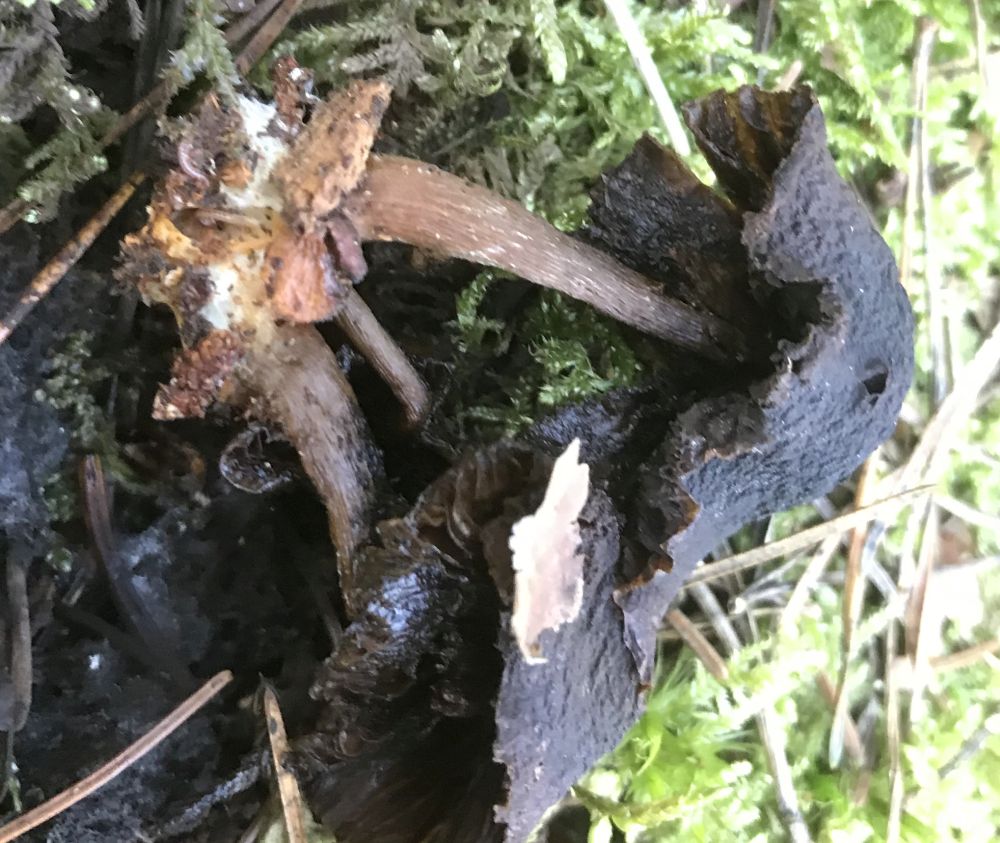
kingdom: Fungi
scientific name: Fungi
